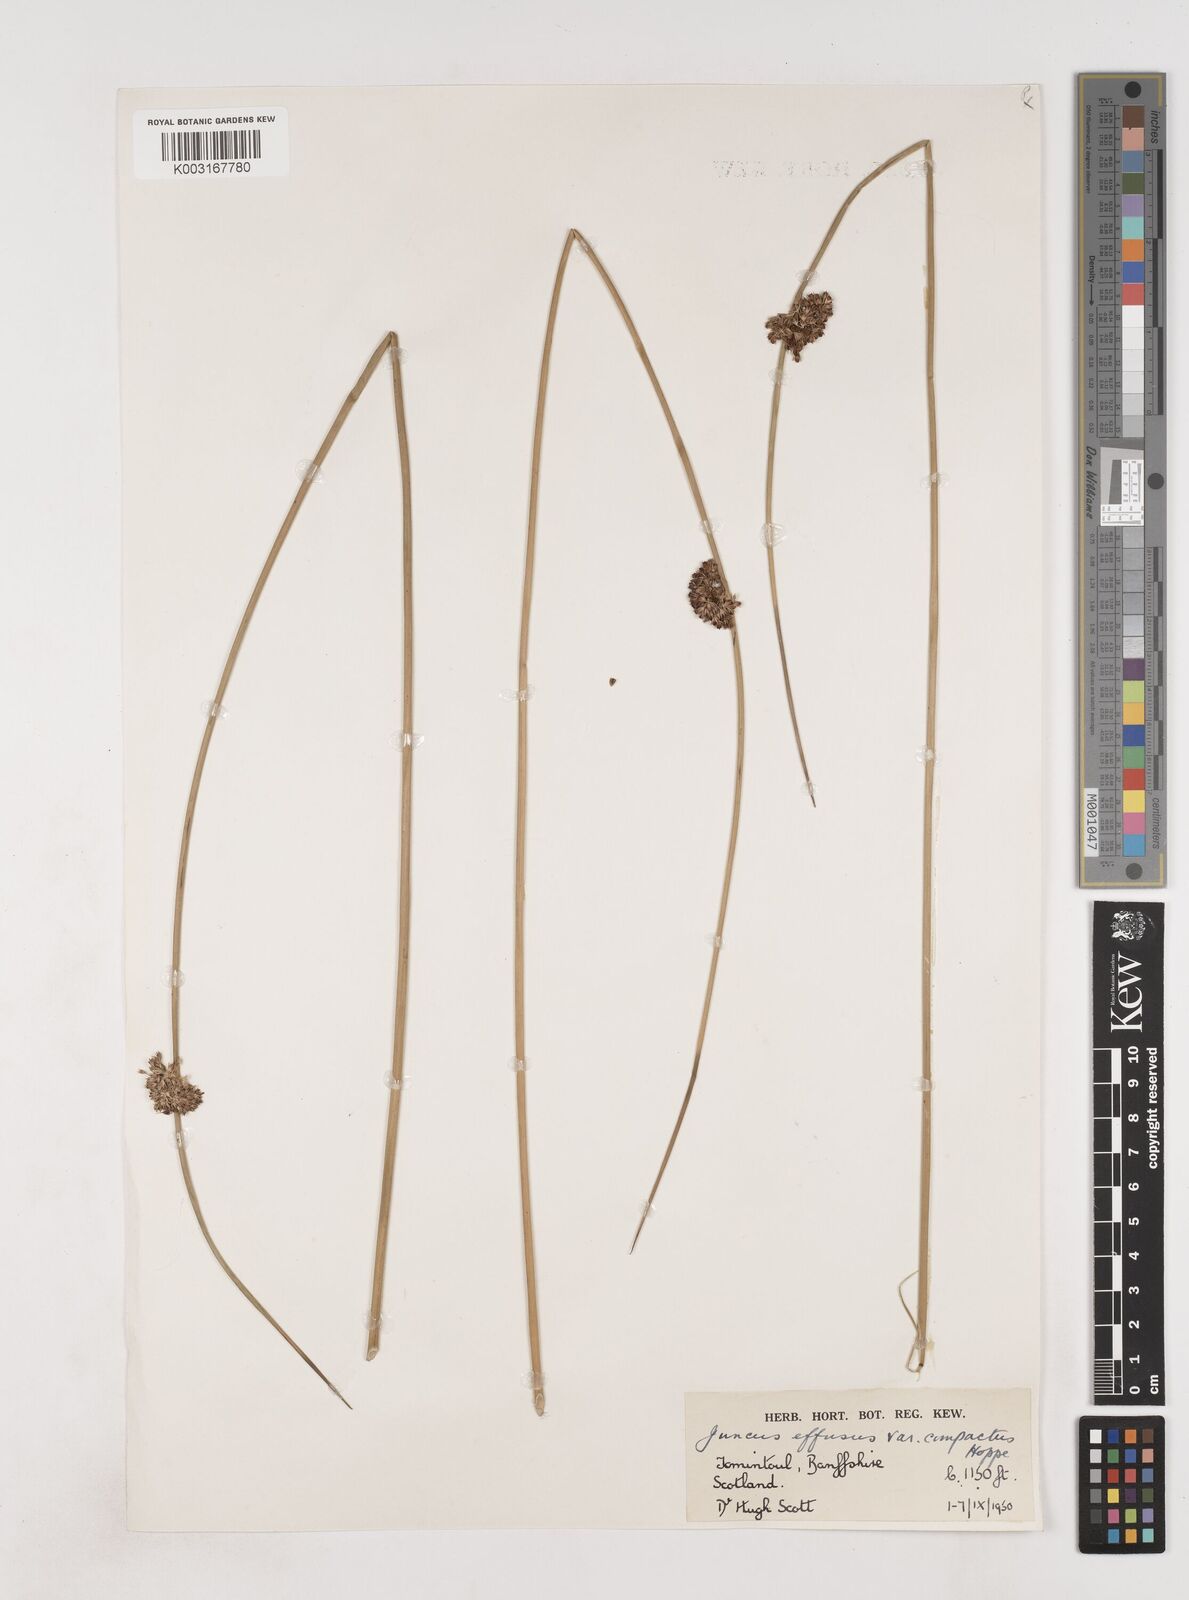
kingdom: Plantae
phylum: Tracheophyta
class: Liliopsida
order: Poales
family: Juncaceae
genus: Juncus
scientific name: Juncus effusus
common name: Soft rush
